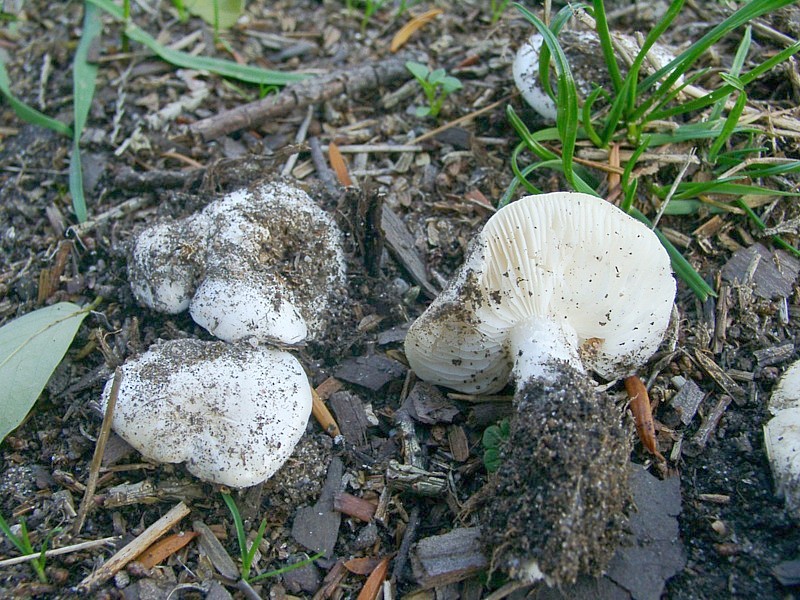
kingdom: Fungi
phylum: Basidiomycota
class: Agaricomycetes
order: Agaricales
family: Lyophyllaceae
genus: Tricholomella
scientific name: Tricholomella constricta
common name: Mealy domecap
